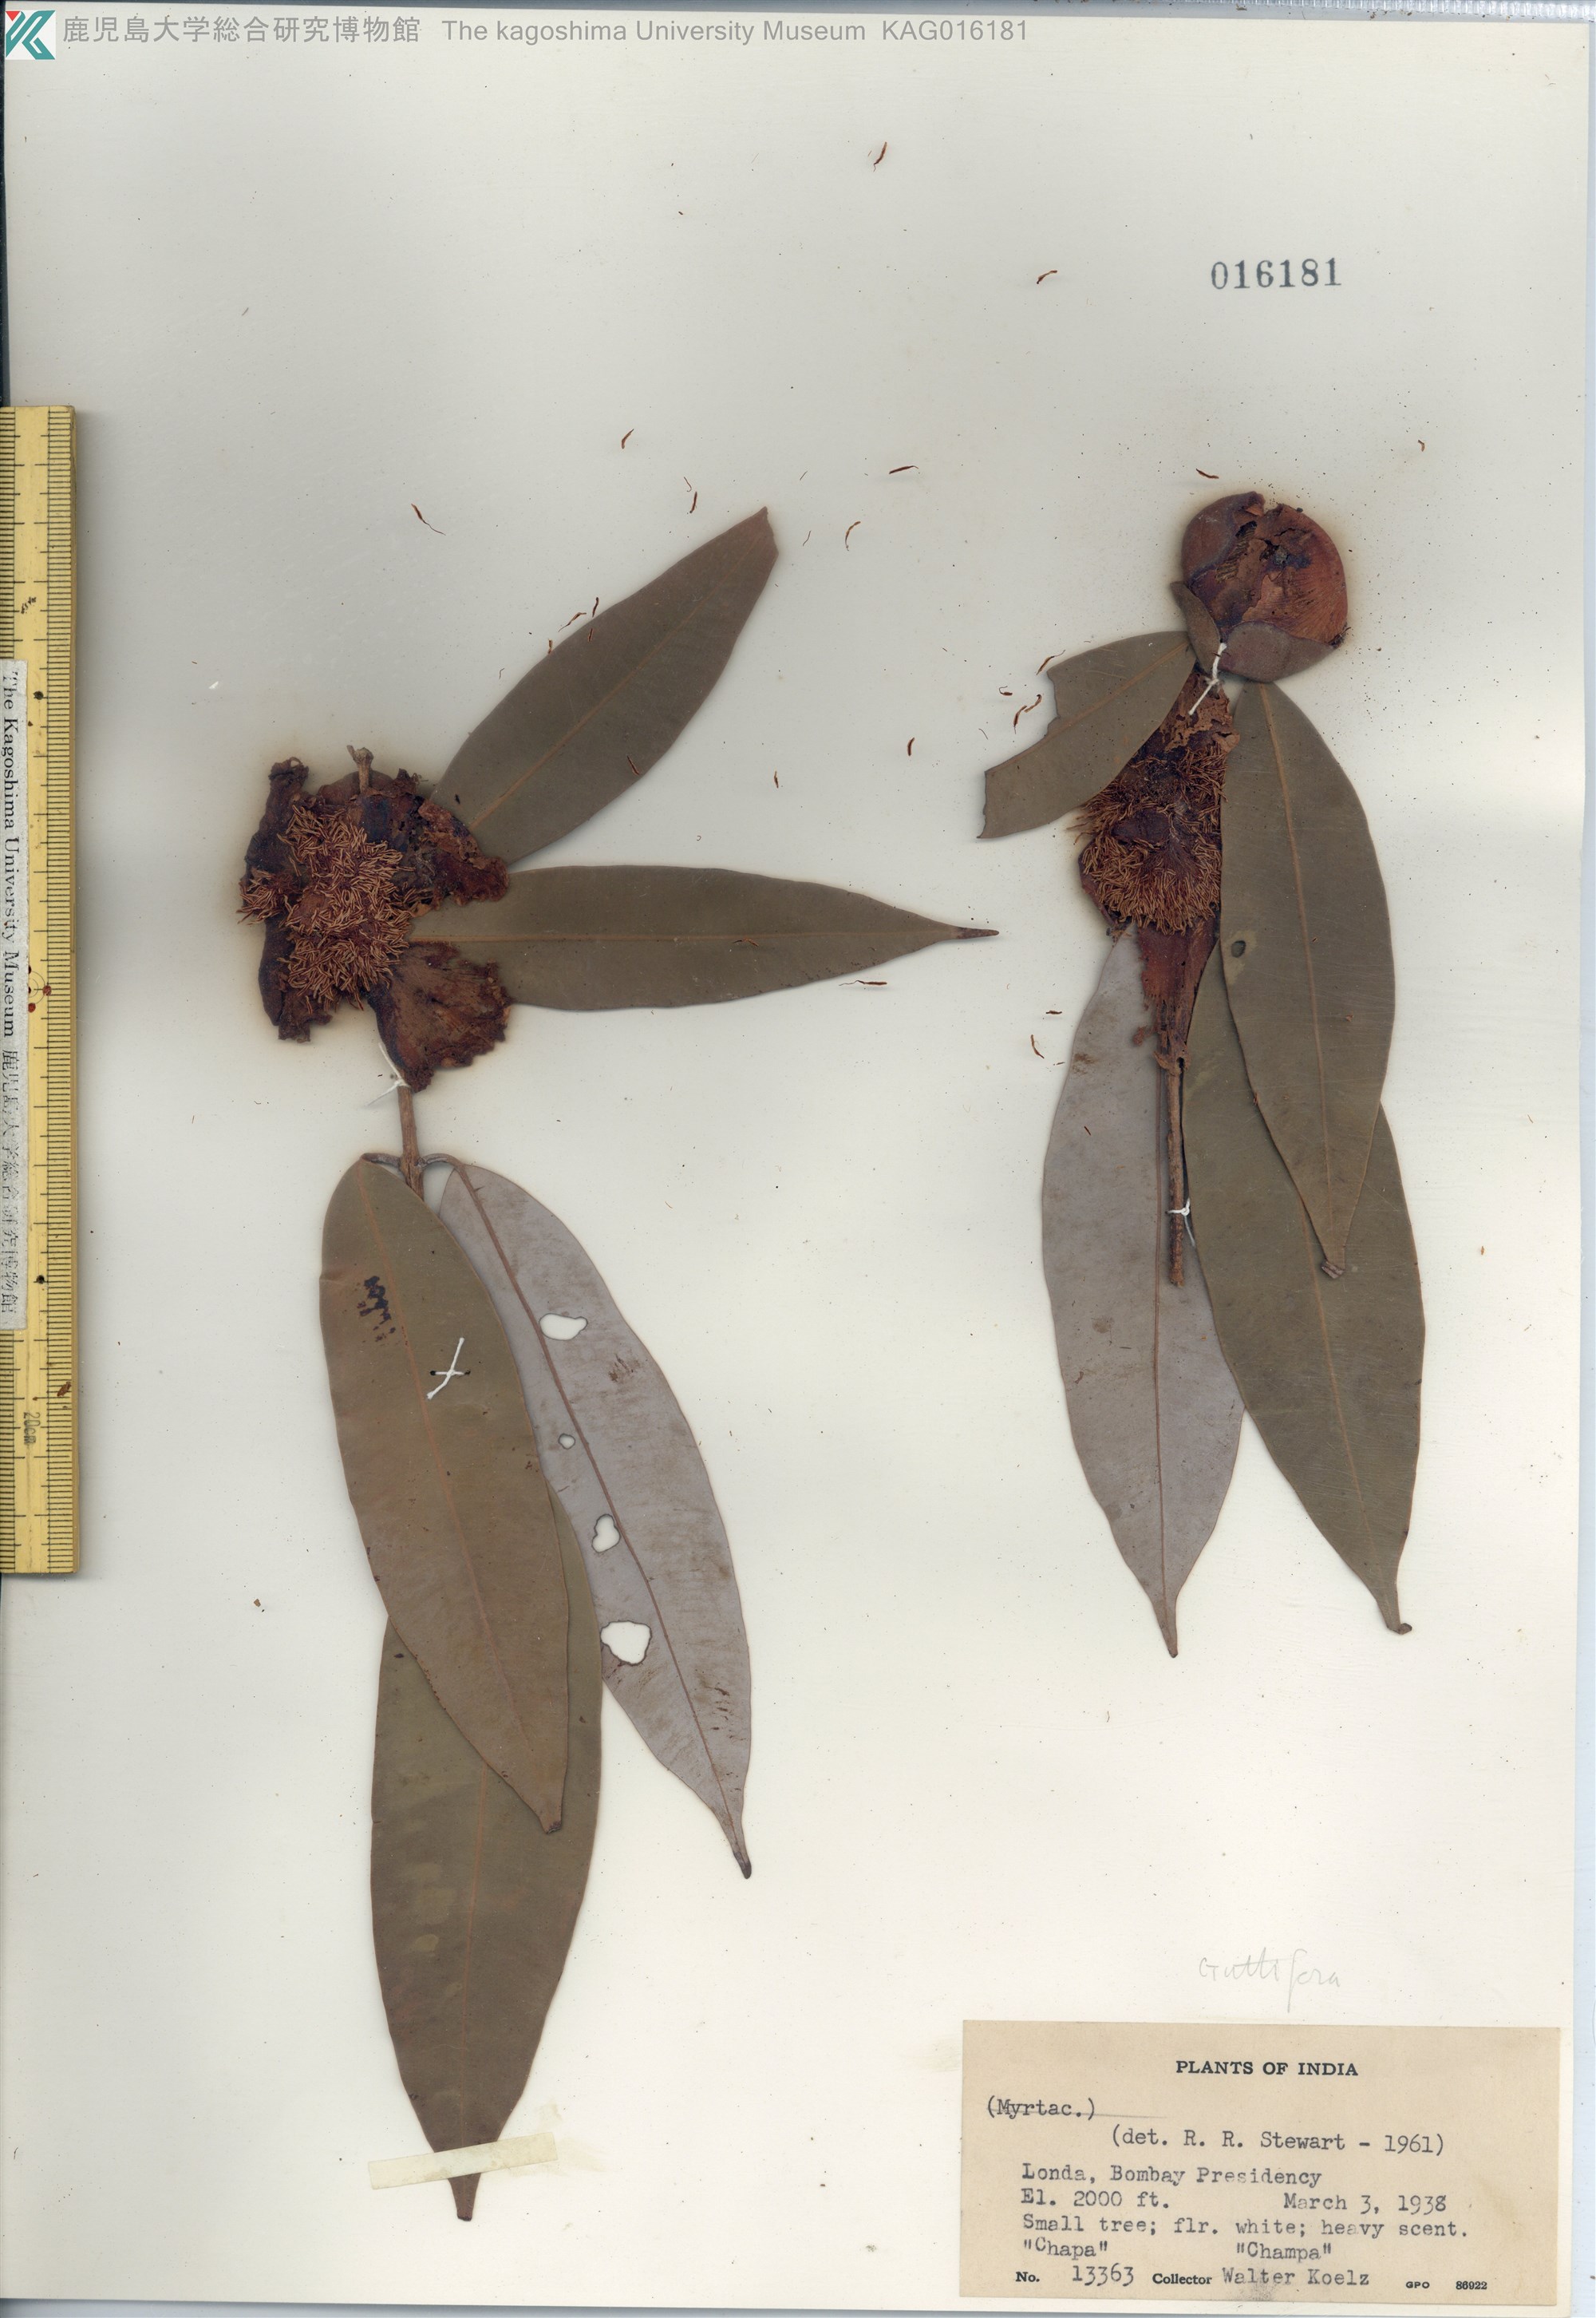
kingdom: Plantae
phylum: Tracheophyta
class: Magnoliopsida
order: Malpighiales
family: Calophyllaceae
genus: Mesua
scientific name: Mesua ferrea
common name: Mesua
